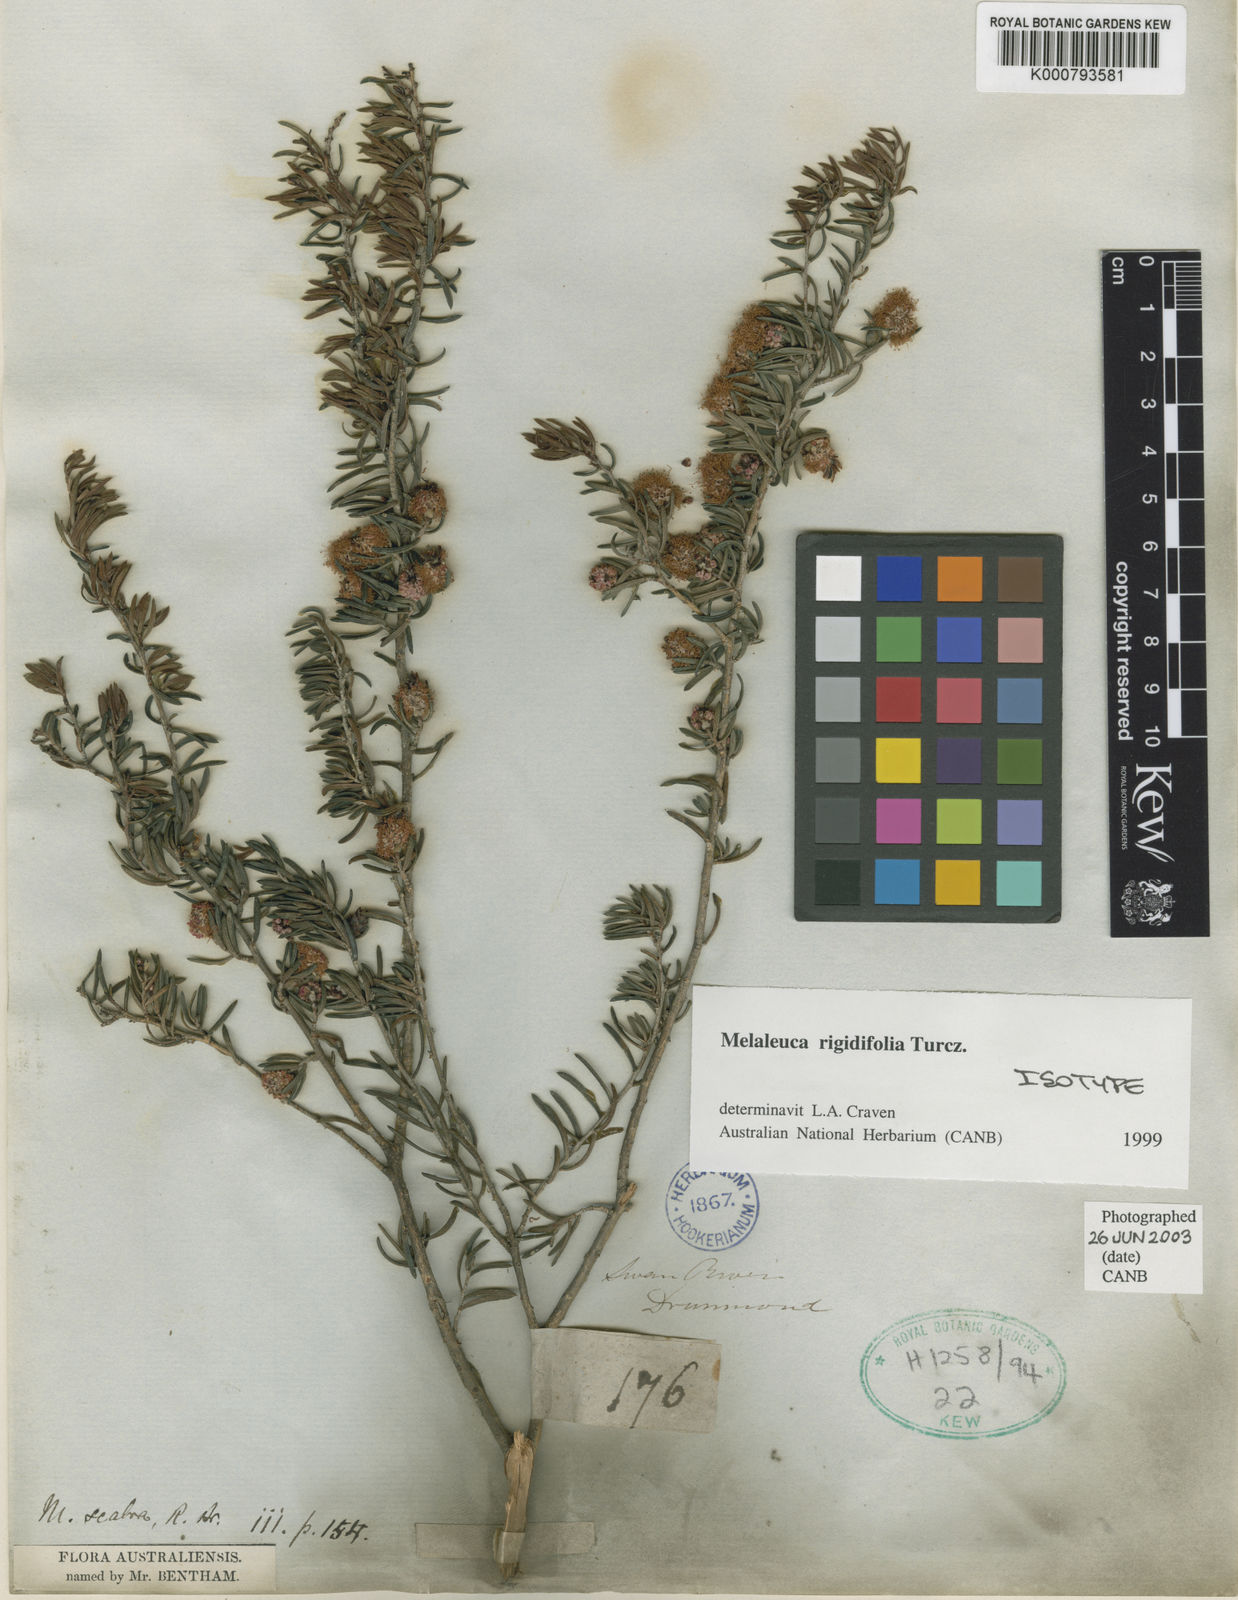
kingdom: Plantae
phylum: Tracheophyta
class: Magnoliopsida
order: Myrtales
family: Myrtaceae
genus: Melaleuca
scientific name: Melaleuca rigidifolia
